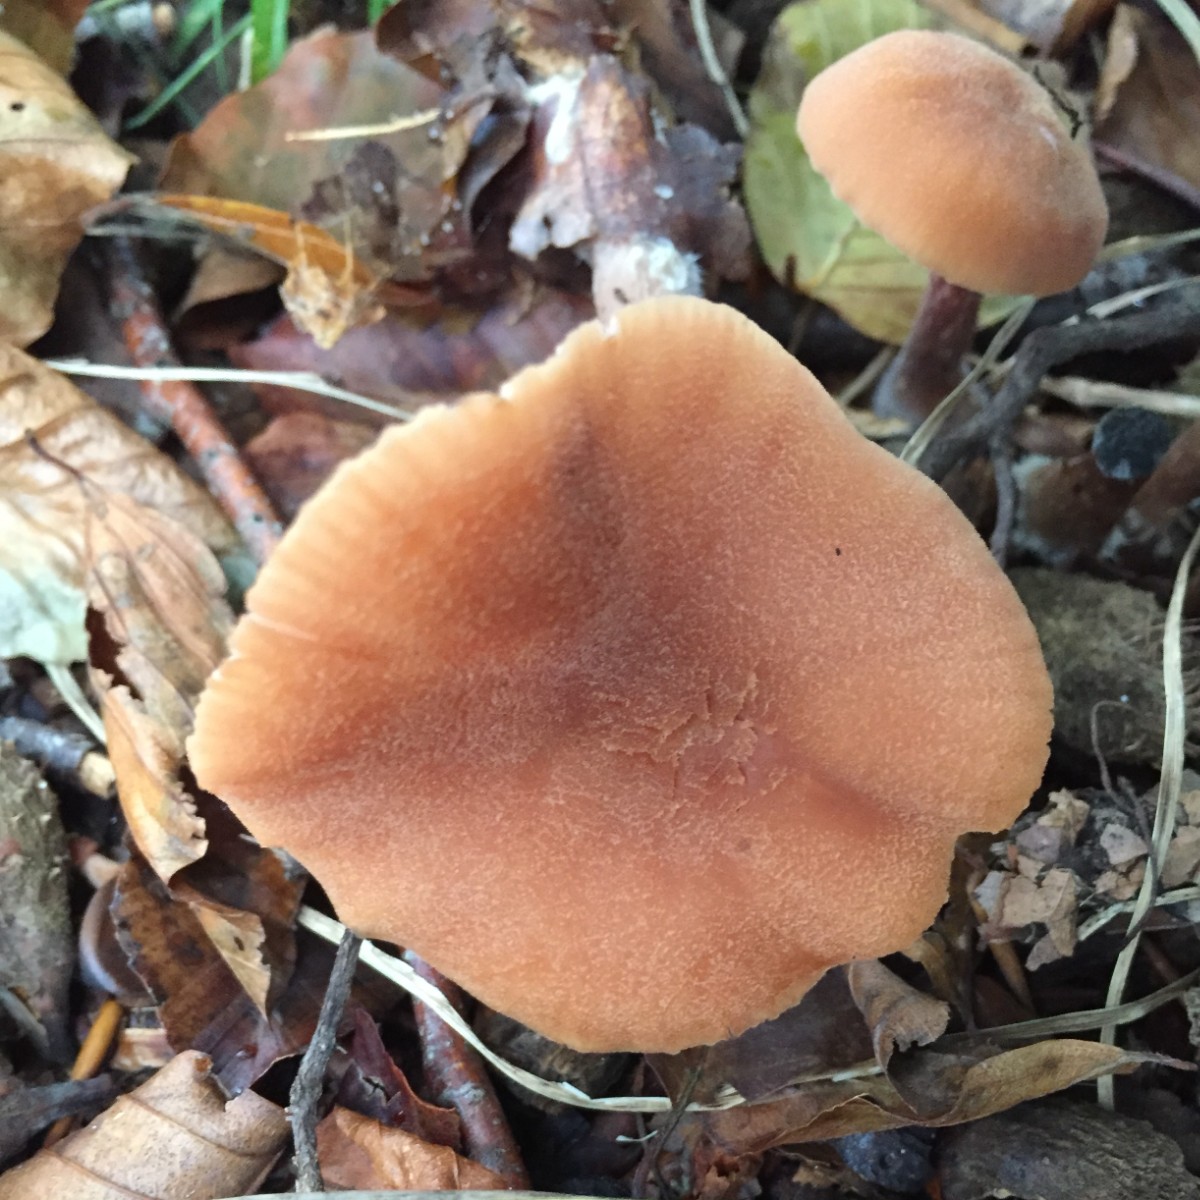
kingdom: Fungi
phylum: Basidiomycota
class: Agaricomycetes
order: Agaricales
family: Hydnangiaceae
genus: Laccaria
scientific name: Laccaria proxima
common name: stor ametysthat
